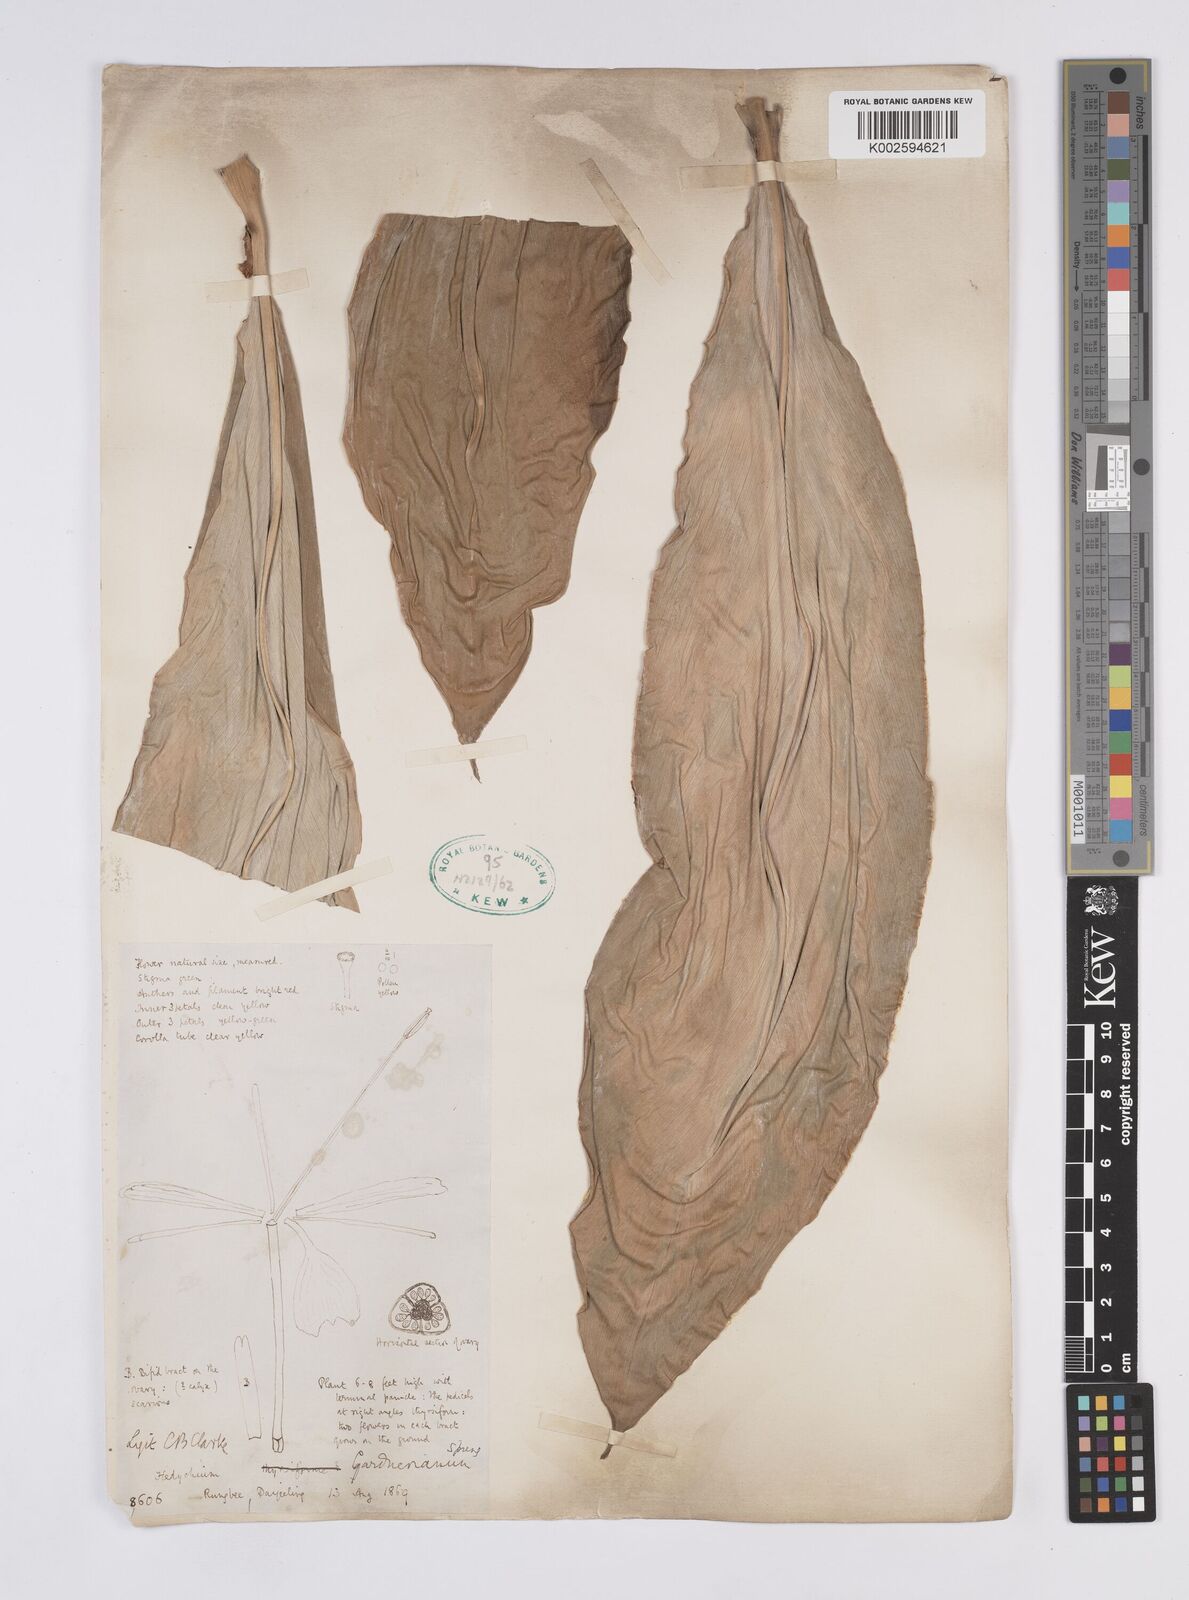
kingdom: Plantae
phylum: Tracheophyta
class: Liliopsida
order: Zingiberales
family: Zingiberaceae
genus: Hedychium
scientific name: Hedychium gardnerianum
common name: Himalayan ginger
